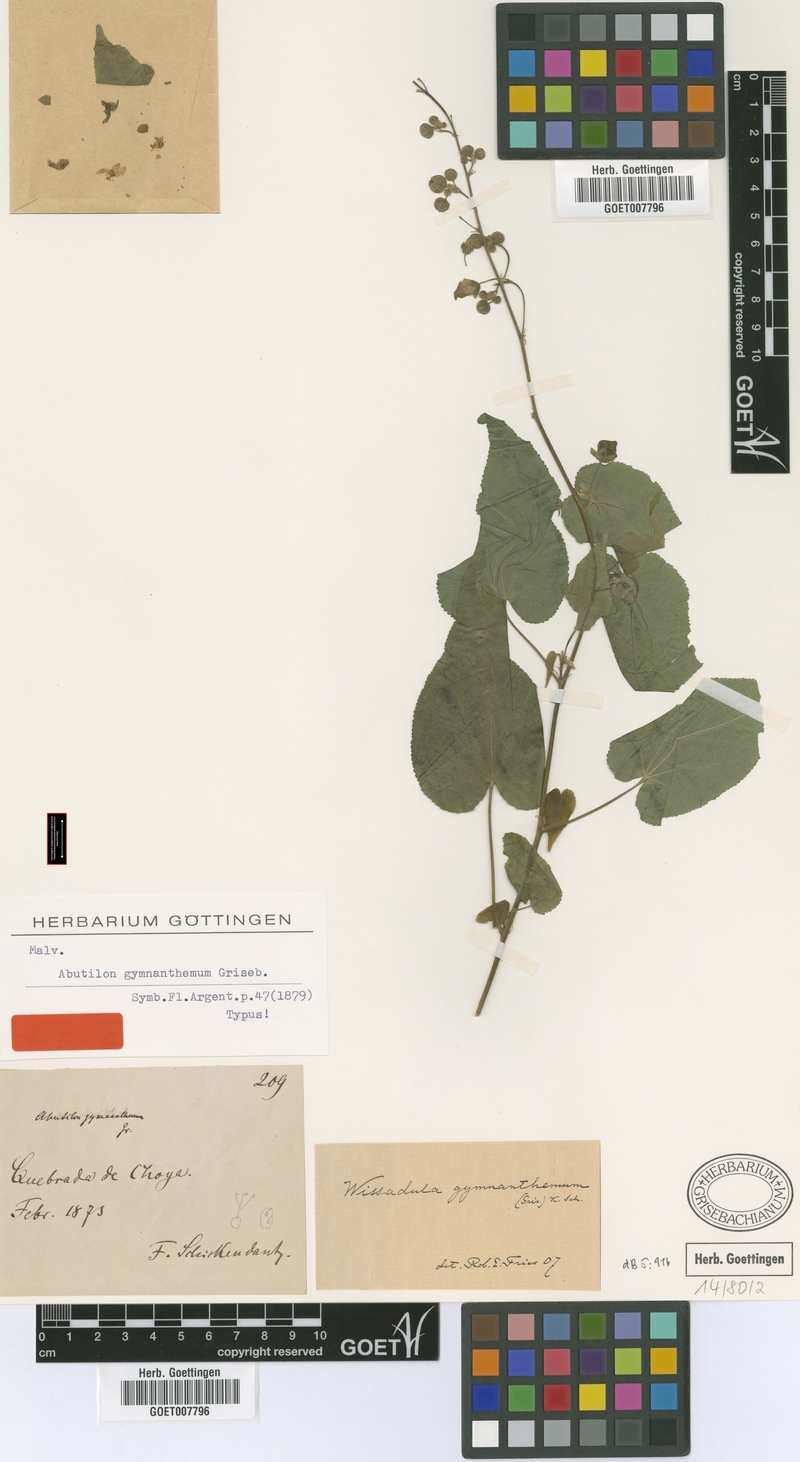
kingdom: Plantae
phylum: Tracheophyta
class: Magnoliopsida
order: Malvales
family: Malvaceae
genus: Wissadula
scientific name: Wissadula gymnanthemum
